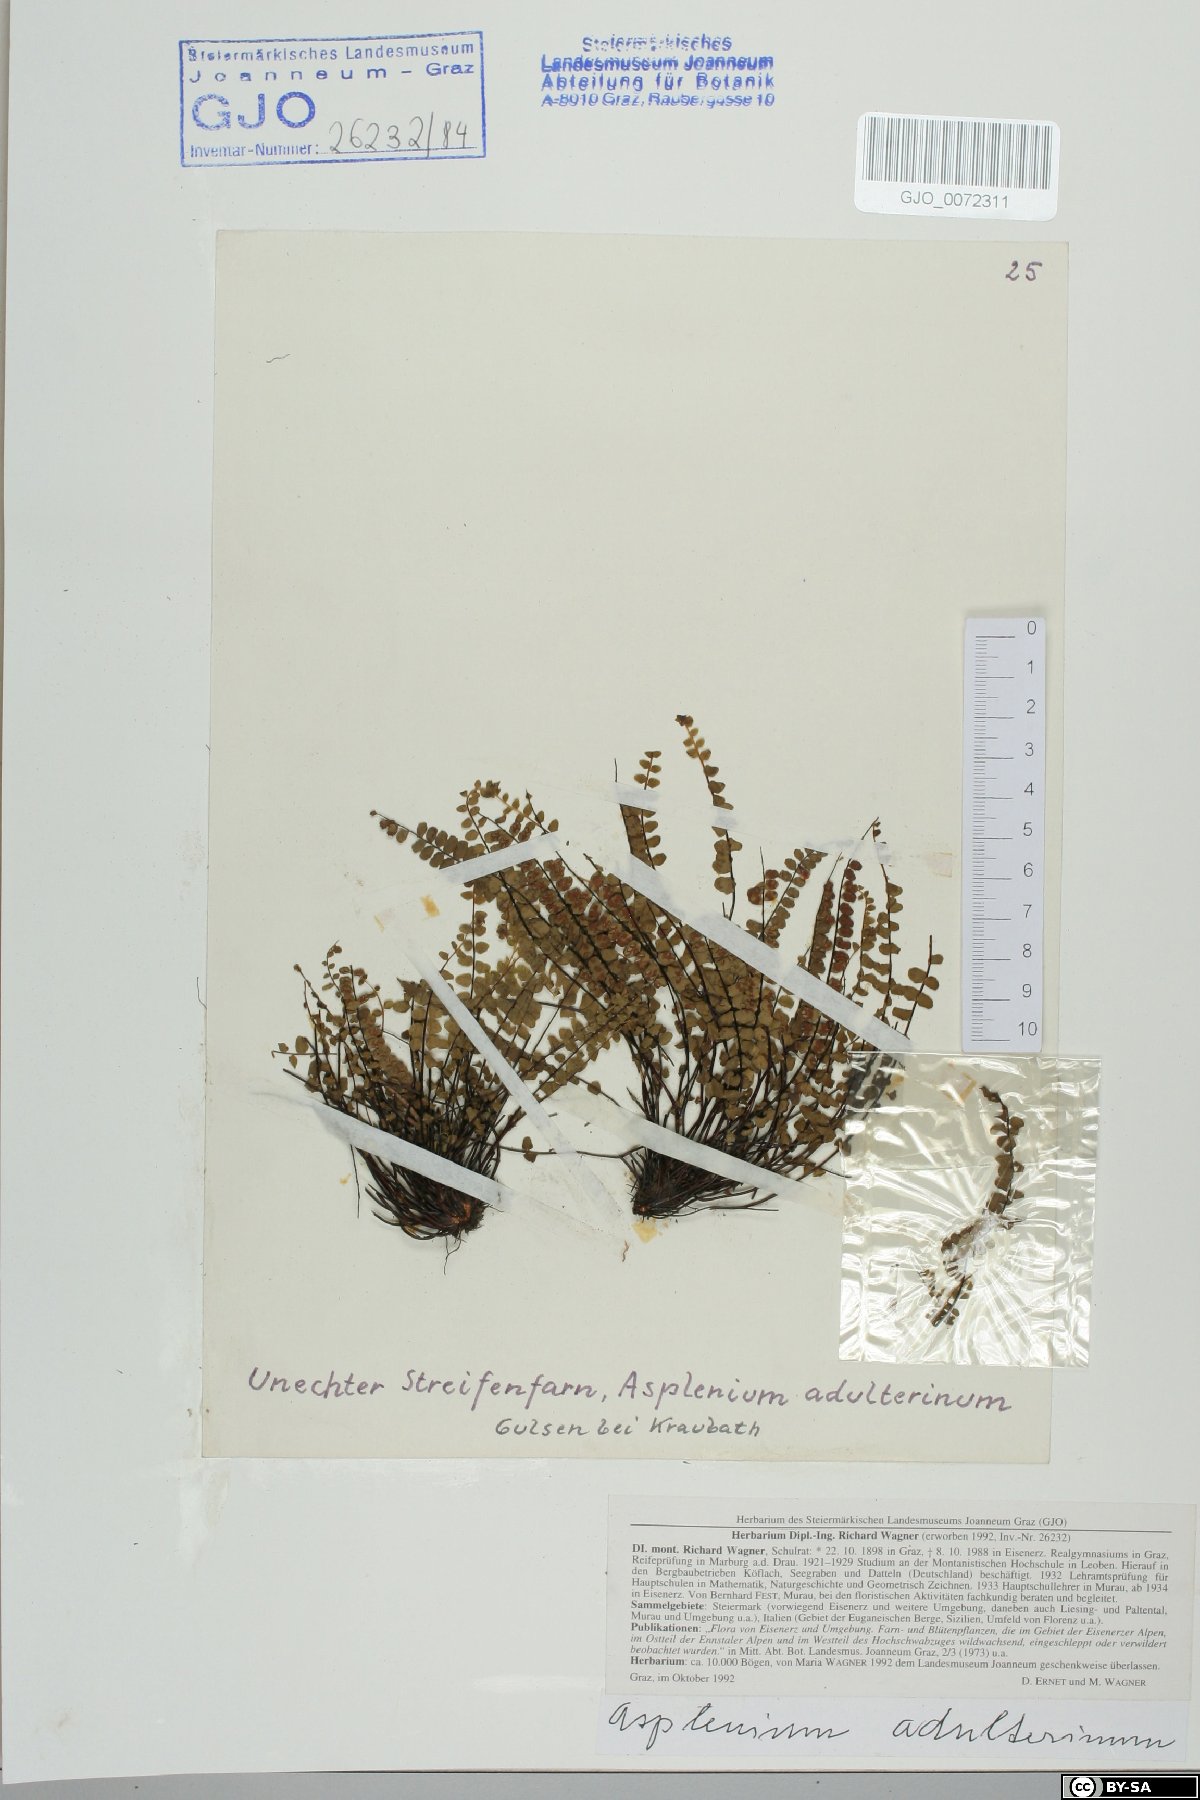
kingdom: Plantae
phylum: Tracheophyta
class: Polypodiopsida
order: Polypodiales
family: Aspleniaceae
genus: Asplenium
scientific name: Asplenium adulterinum
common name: Adulterated spleenwort
